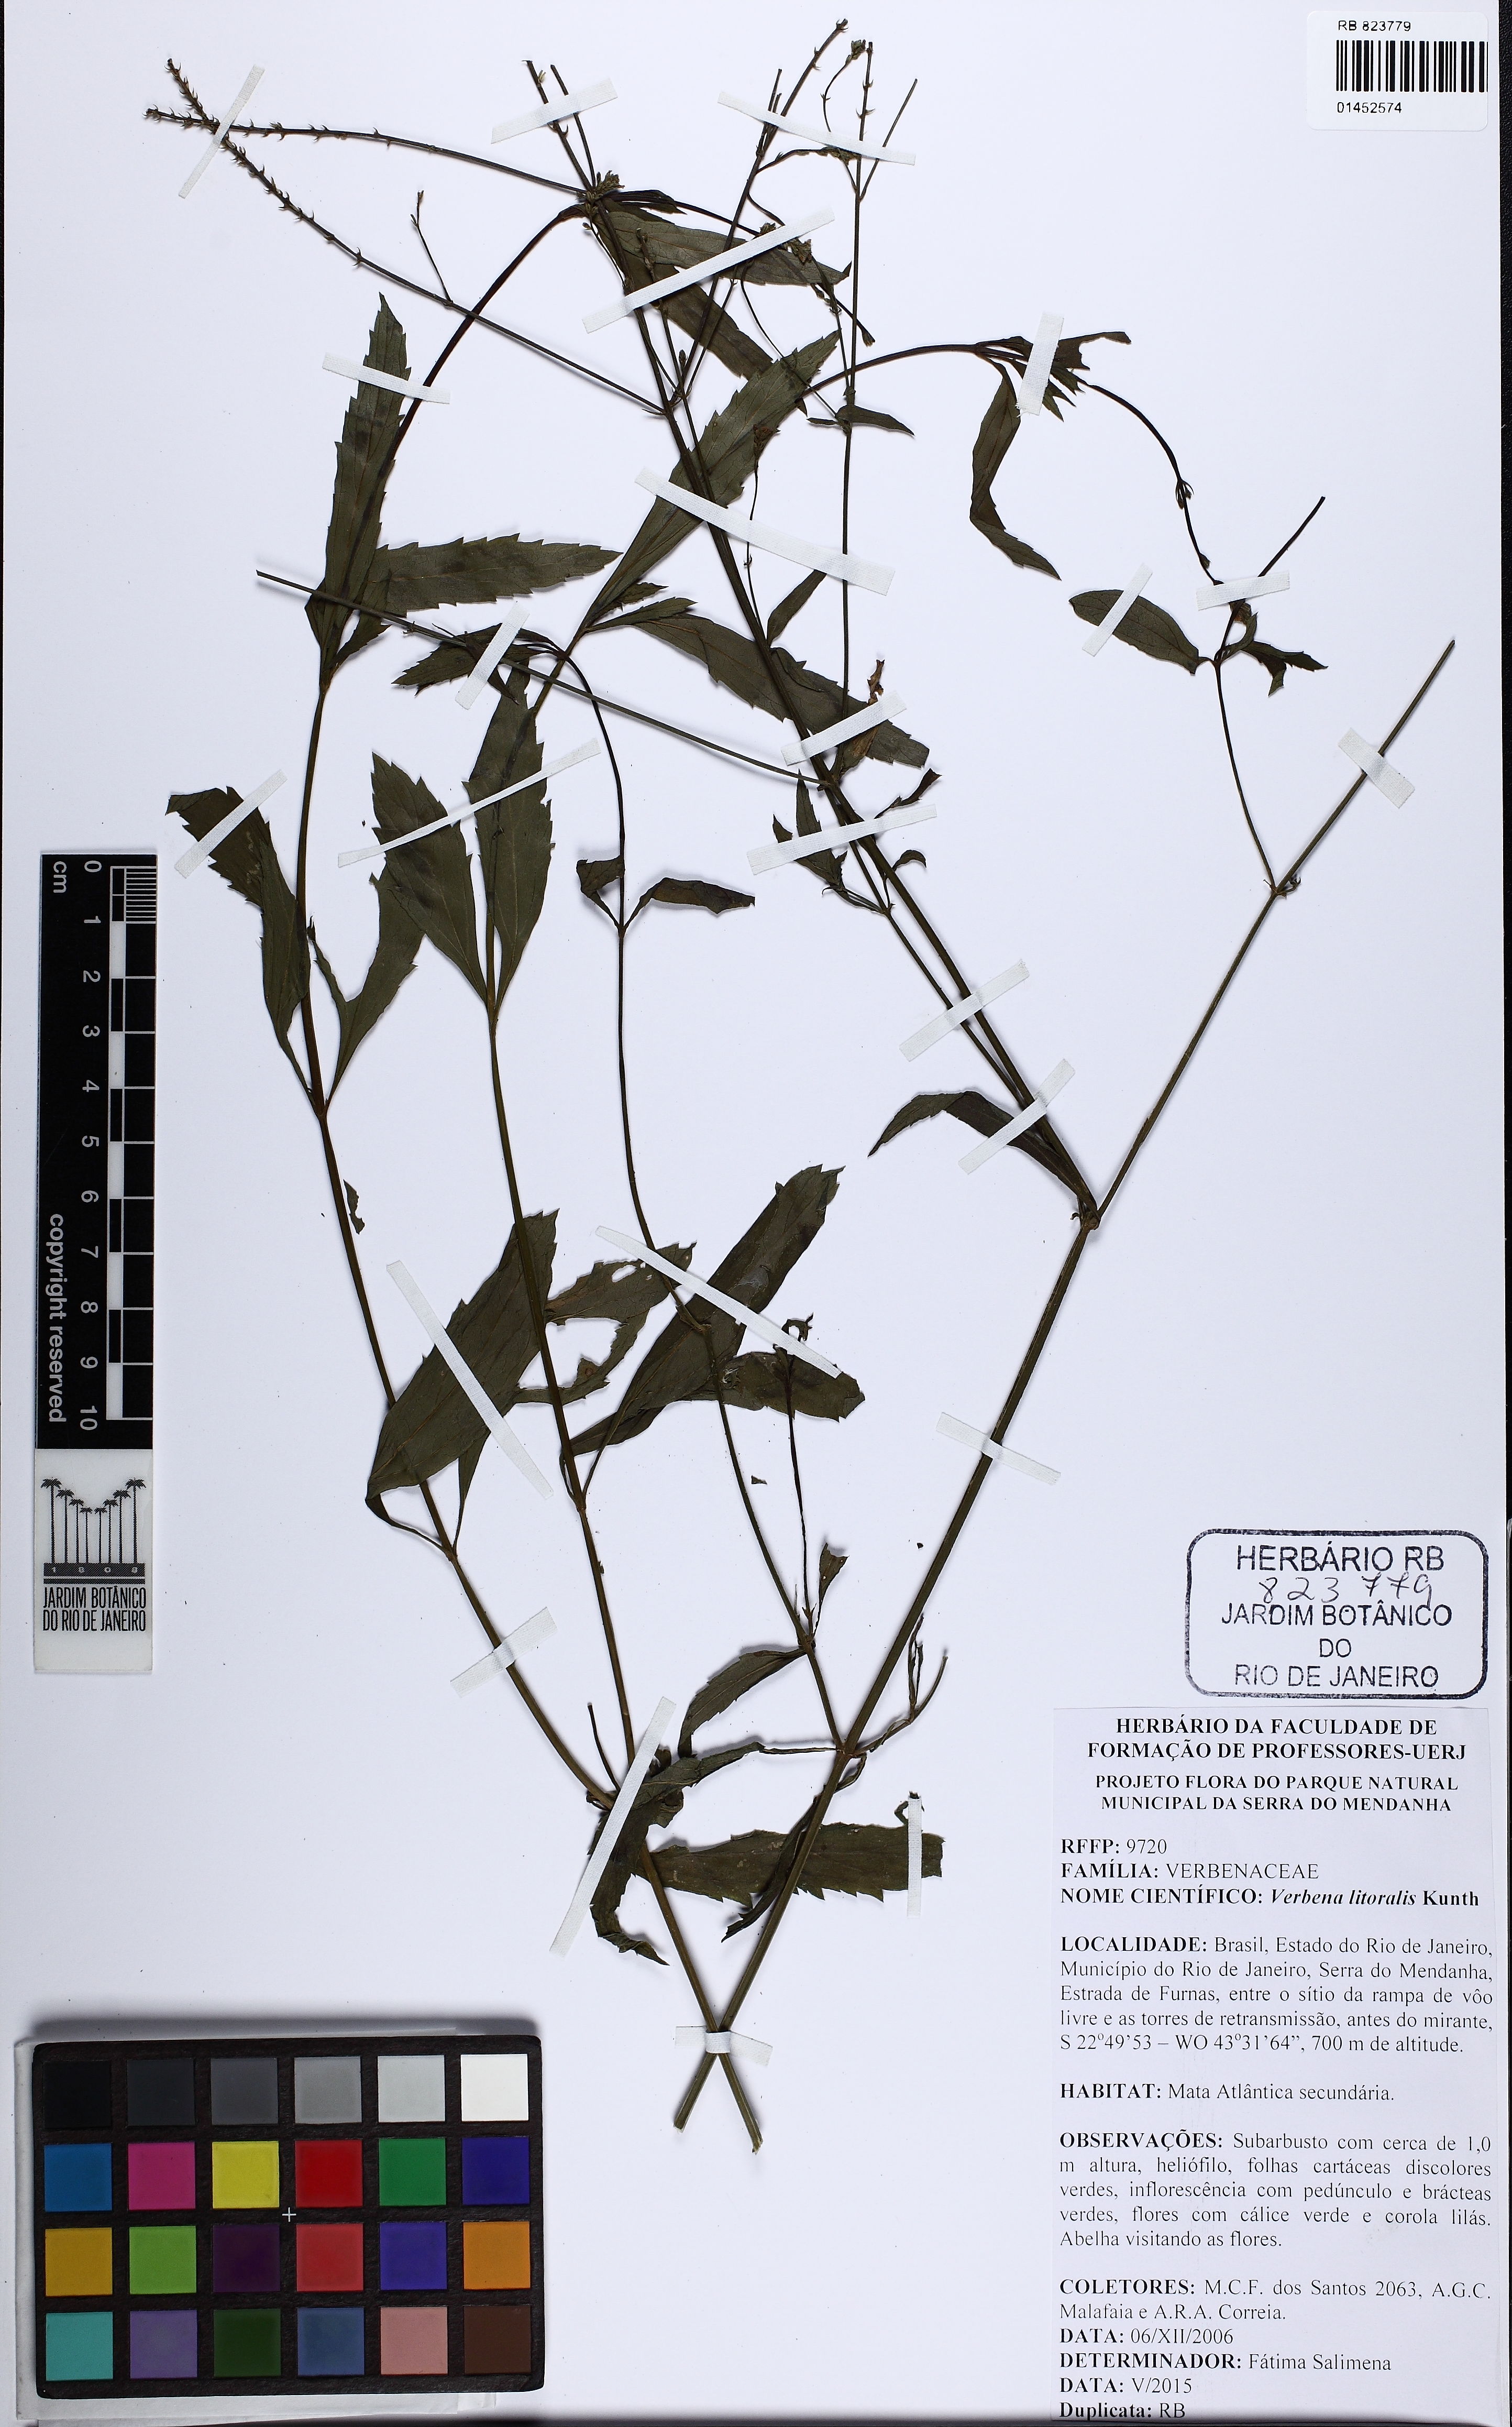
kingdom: Plantae
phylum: Tracheophyta
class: Magnoliopsida
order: Lamiales
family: Verbenaceae
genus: Verbena
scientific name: Verbena litoralis
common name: Seashore vervain
